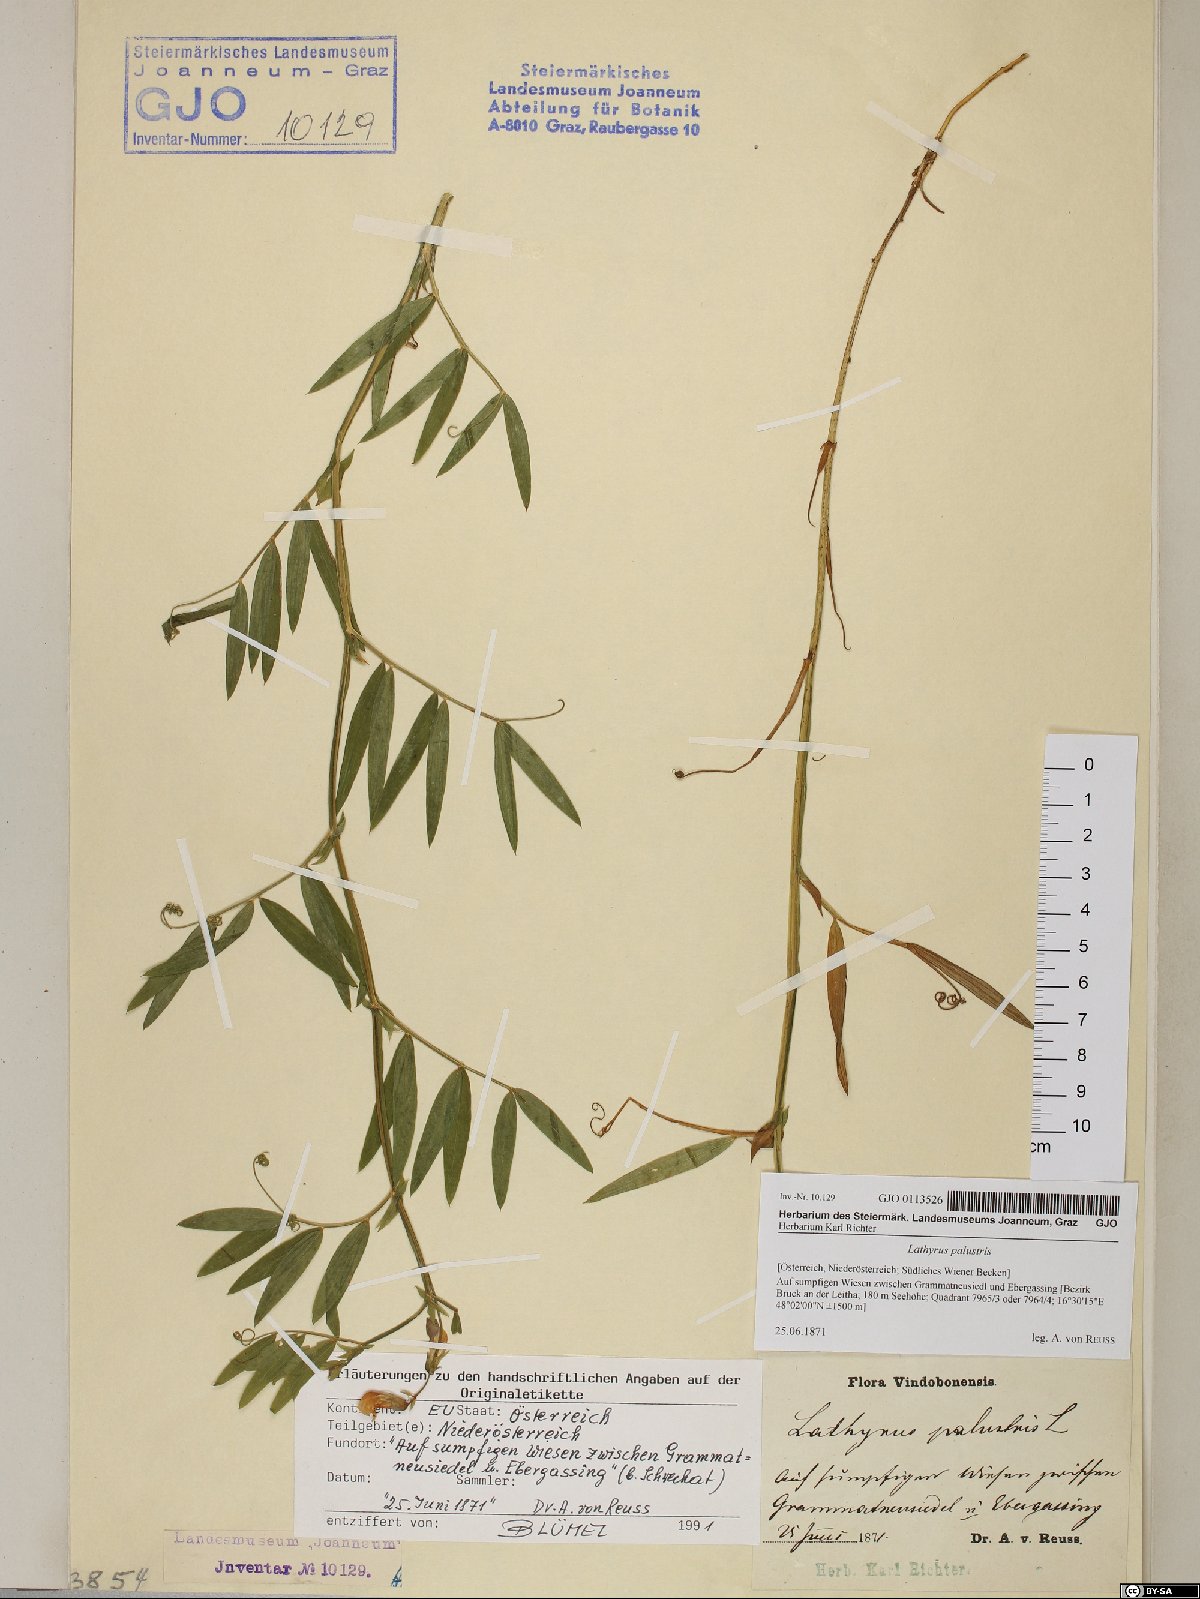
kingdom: Plantae
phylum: Tracheophyta
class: Magnoliopsida
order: Fabales
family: Fabaceae
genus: Lathyrus
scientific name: Lathyrus palustris
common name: Marsh pea
